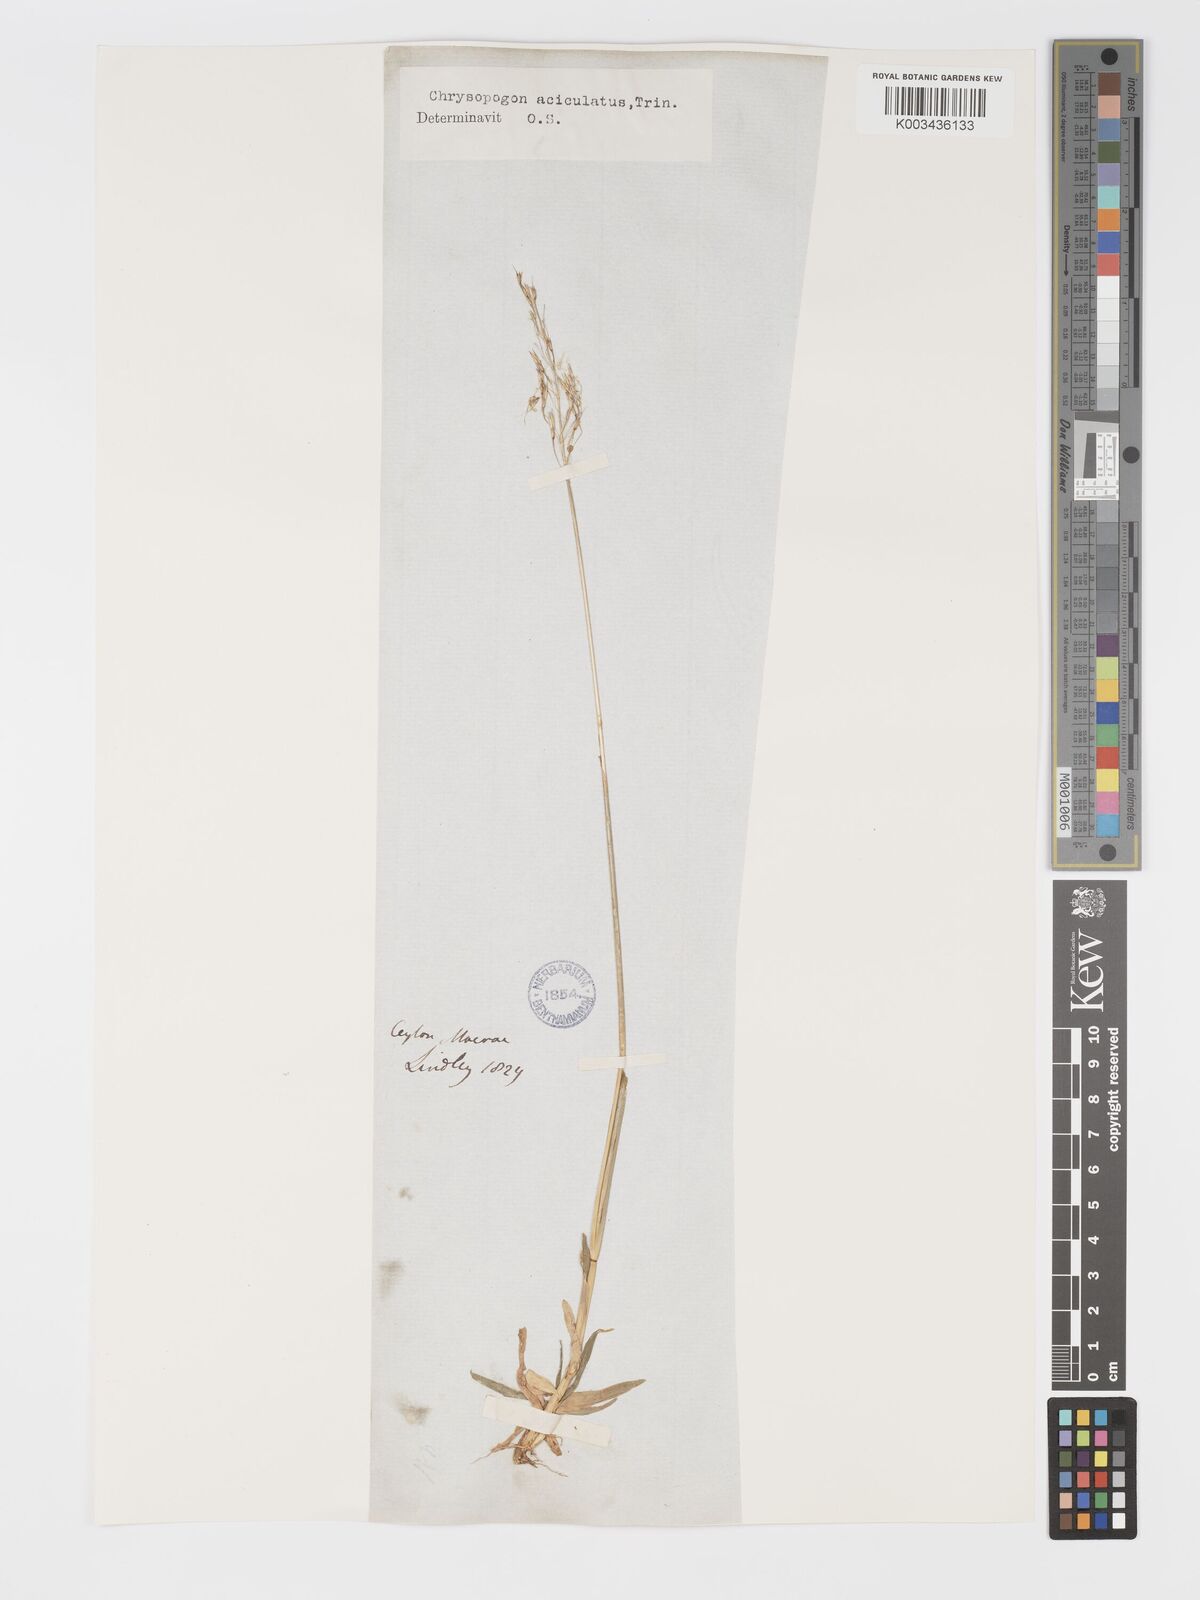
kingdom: Plantae
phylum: Tracheophyta
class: Liliopsida
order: Poales
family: Poaceae
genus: Chrysopogon
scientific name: Chrysopogon aciculatus
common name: Pilipiliula
